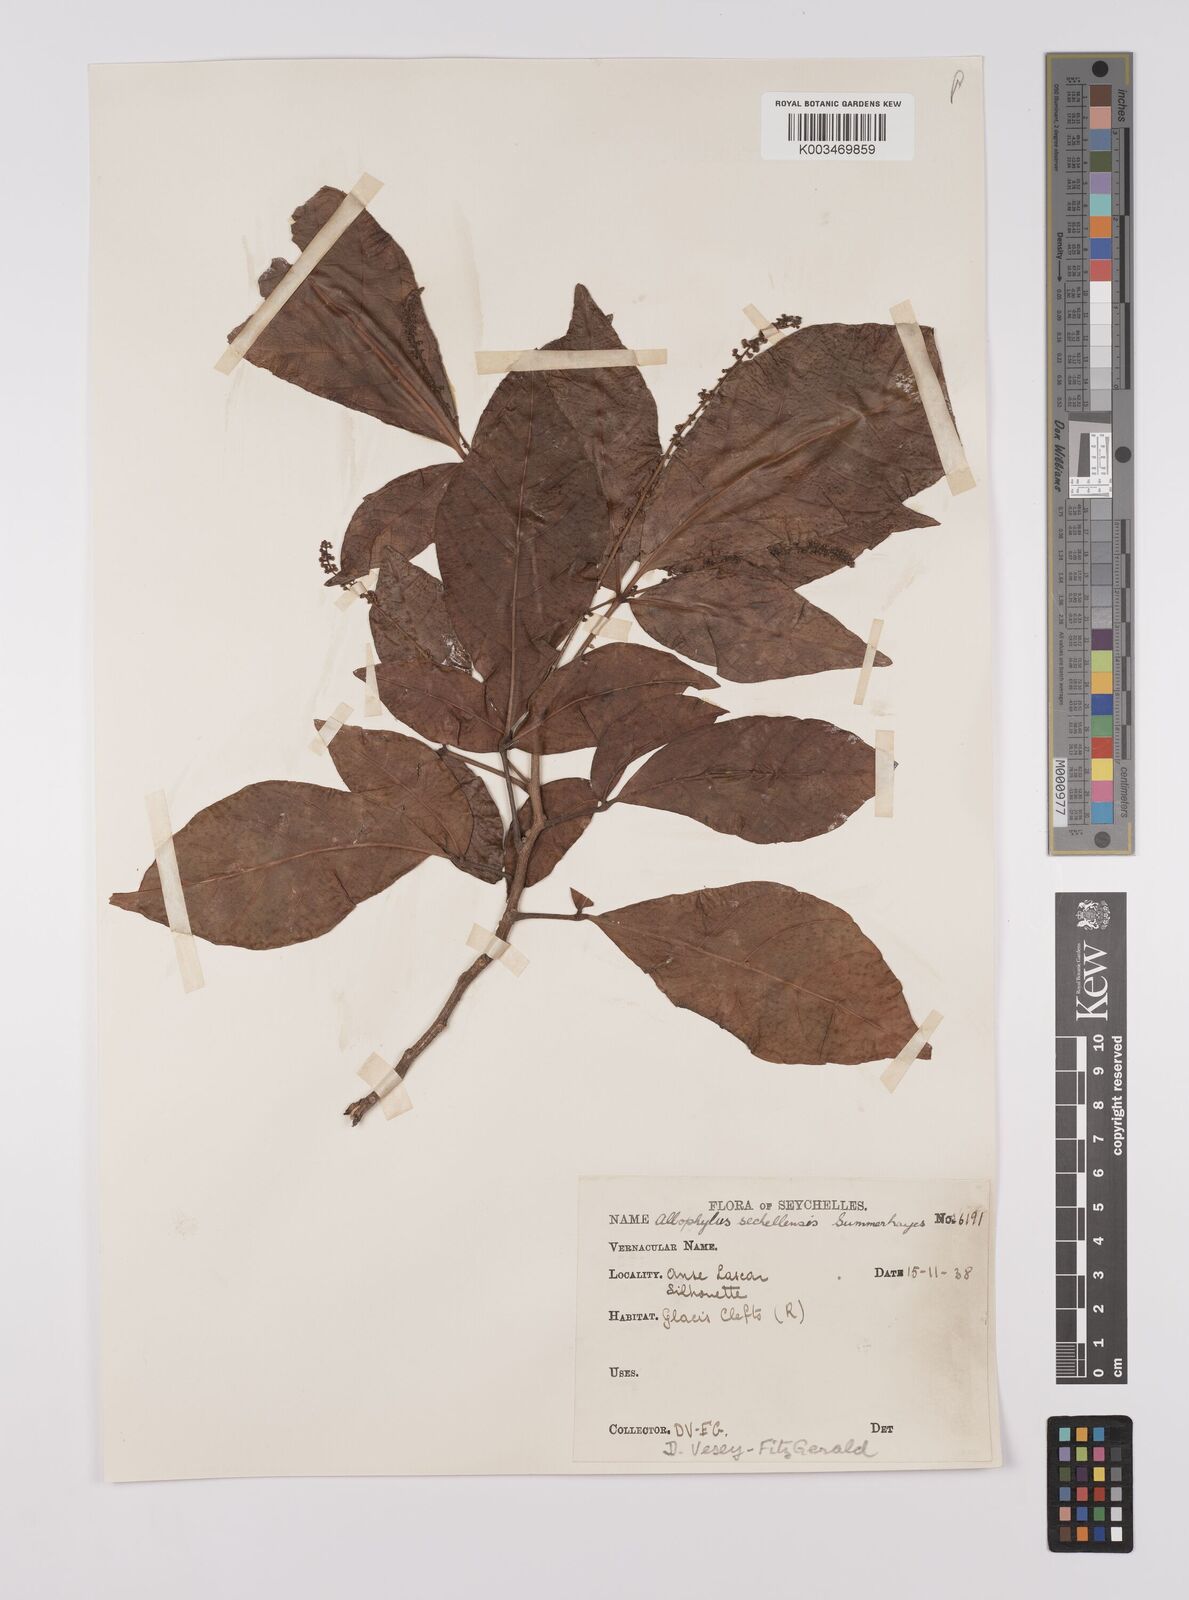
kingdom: Plantae
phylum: Tracheophyta
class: Magnoliopsida
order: Sapindales
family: Sapindaceae
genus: Allophylus
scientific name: Allophylus sechellensis
